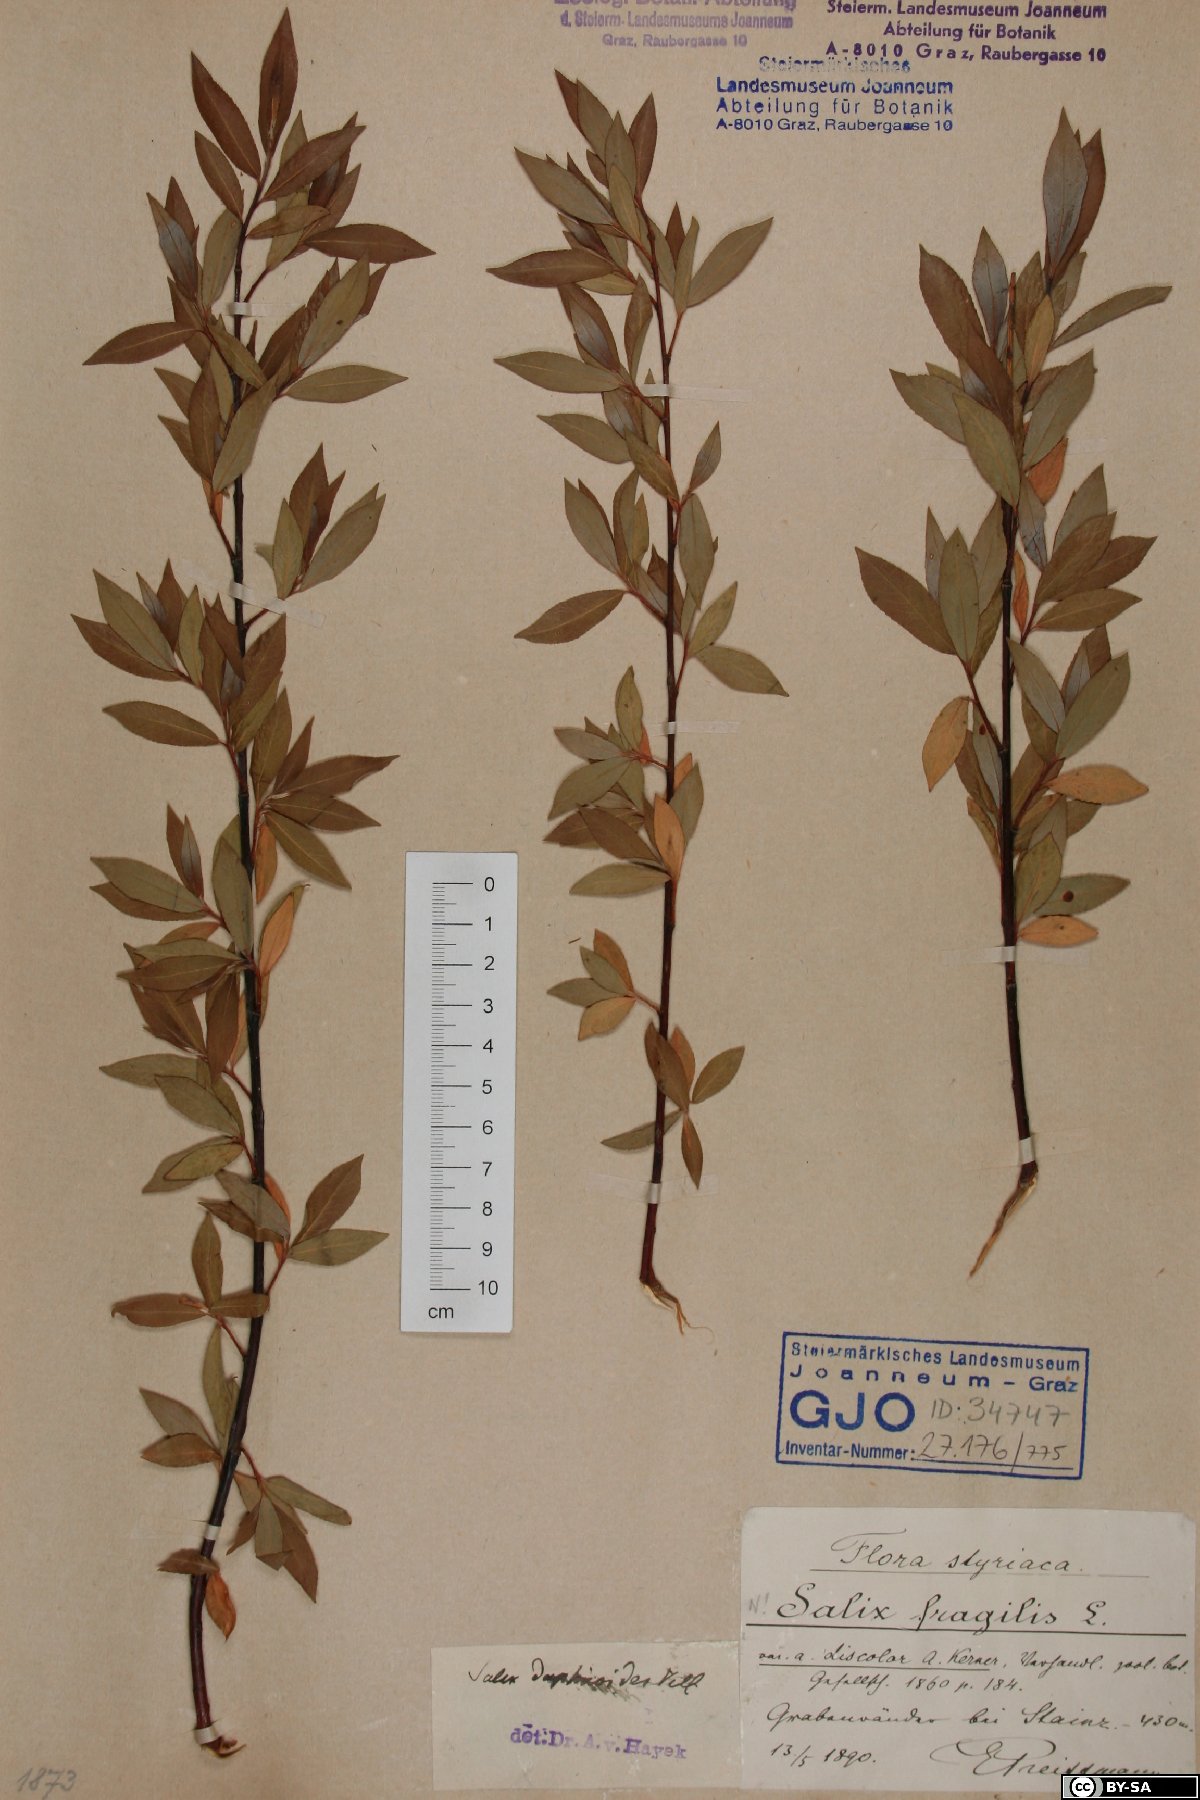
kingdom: Plantae
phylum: Tracheophyta
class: Magnoliopsida
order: Malpighiales
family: Salicaceae
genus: Salix
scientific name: Salix fragilis
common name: Crack willow
